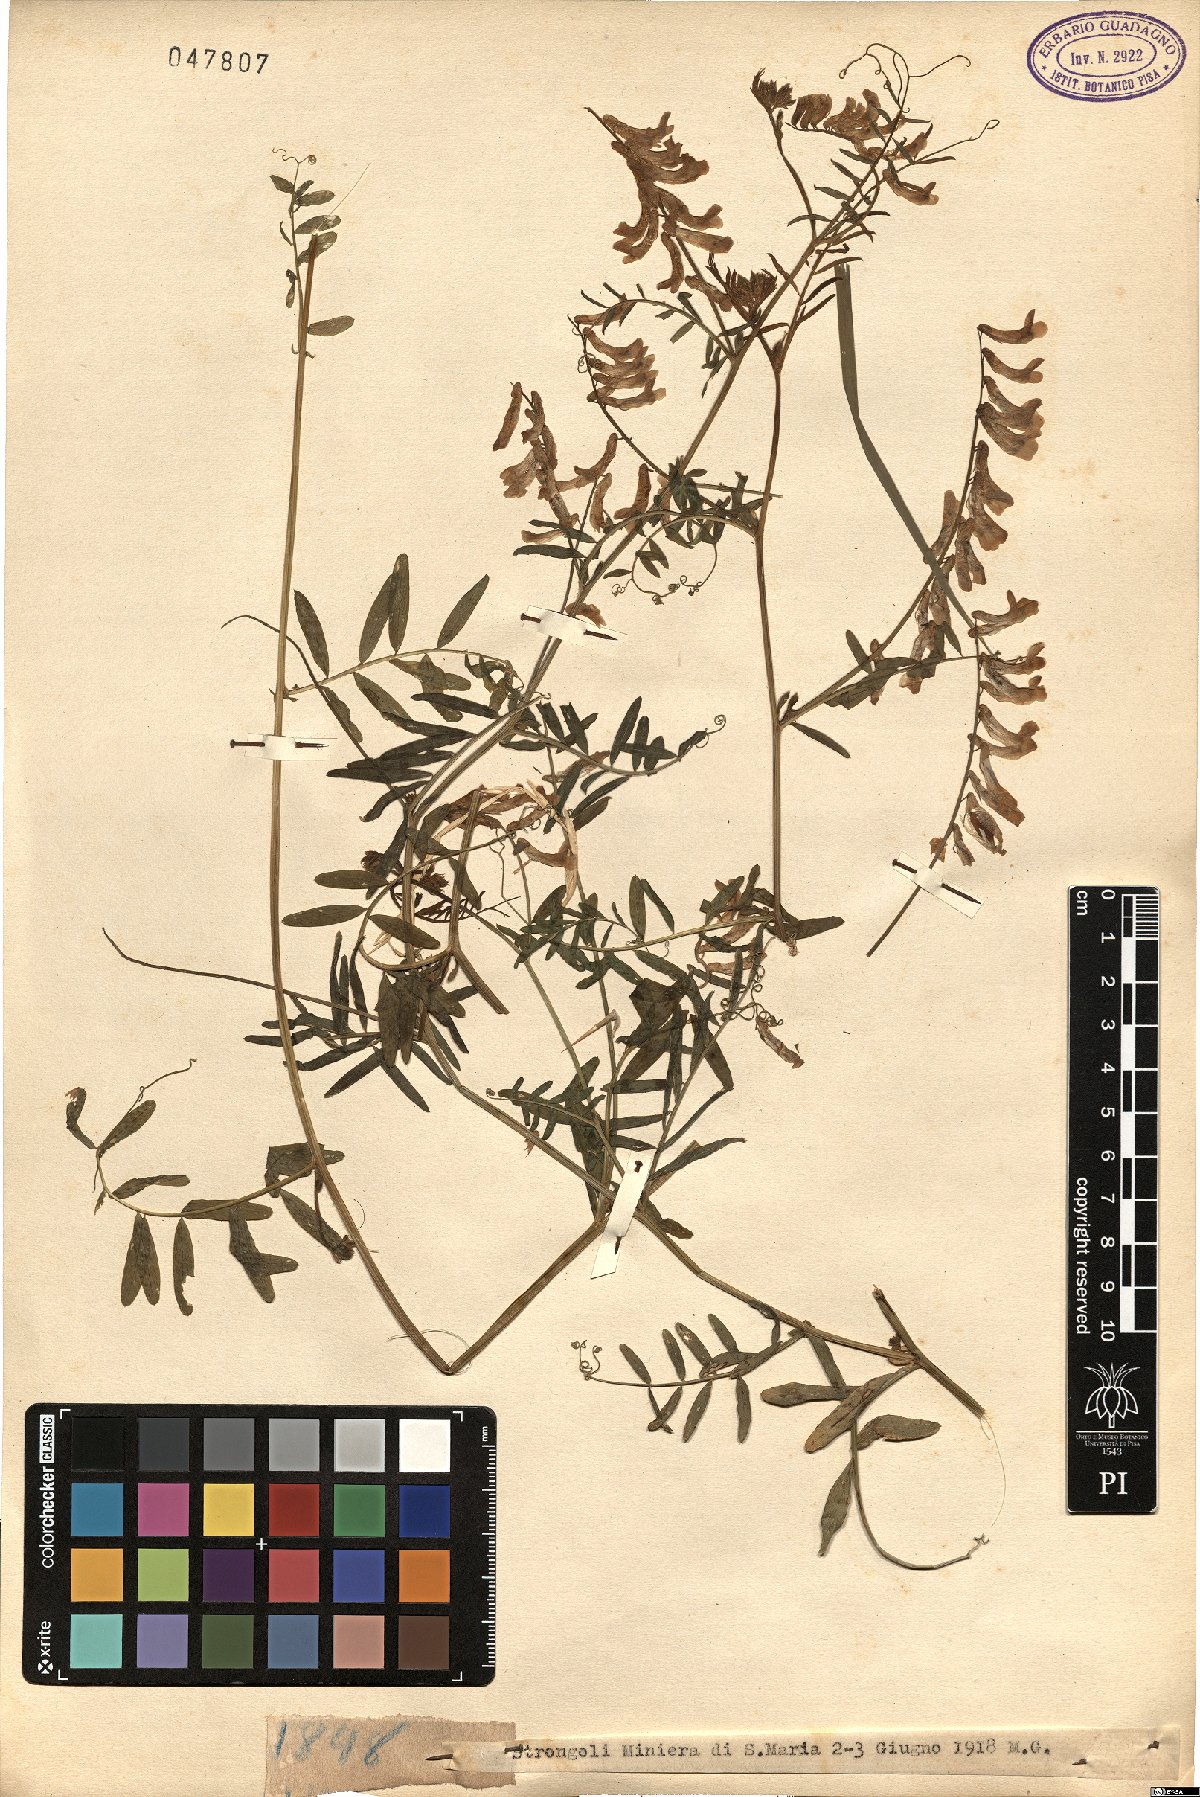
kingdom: Plantae
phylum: Tracheophyta
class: Magnoliopsida
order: Fabales
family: Fabaceae
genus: Vicia
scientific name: Vicia
